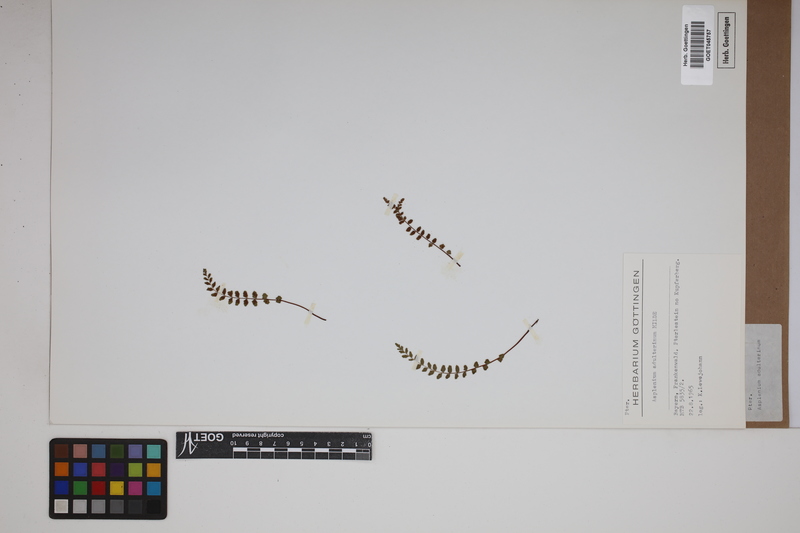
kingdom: Plantae
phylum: Tracheophyta
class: Polypodiopsida
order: Polypodiales
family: Aspleniaceae
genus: Asplenium
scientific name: Asplenium adulterinum
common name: Adulterated spleenwort
